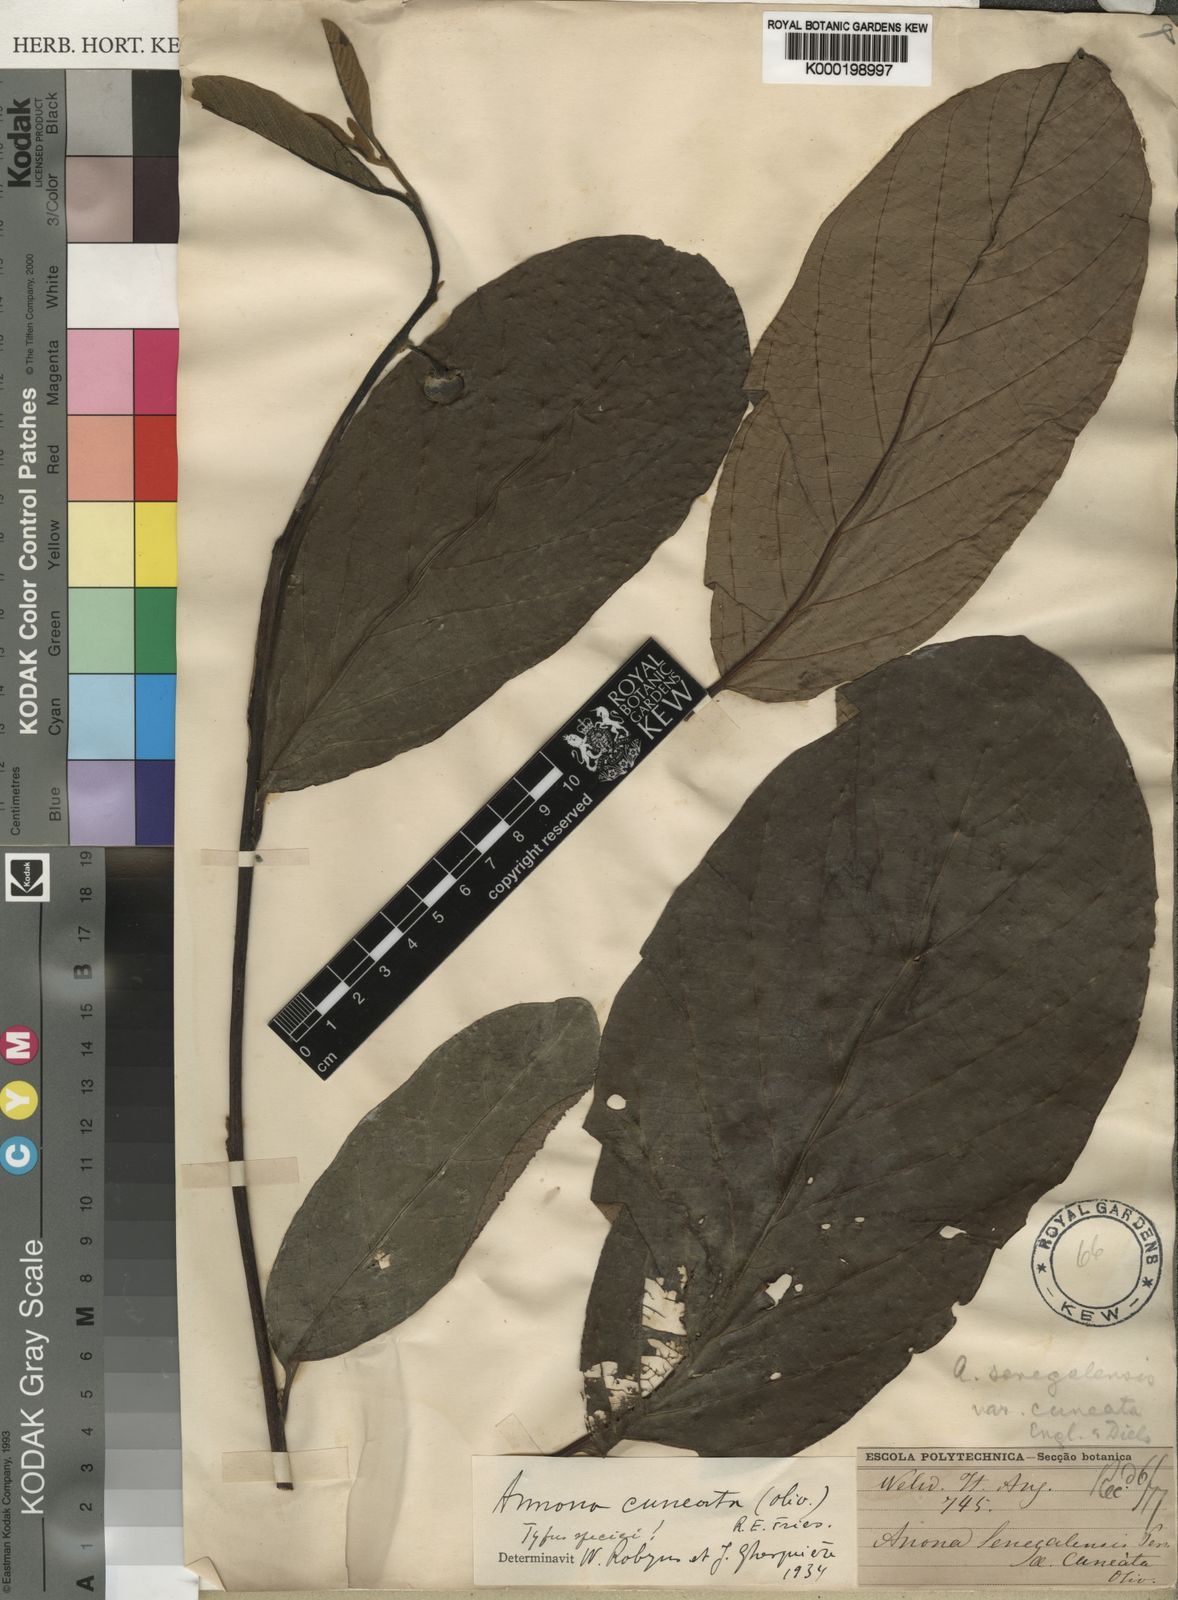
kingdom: Plantae
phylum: Tracheophyta
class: Magnoliopsida
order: Magnoliales
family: Annonaceae
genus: Annona
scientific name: Annona stenophylla
